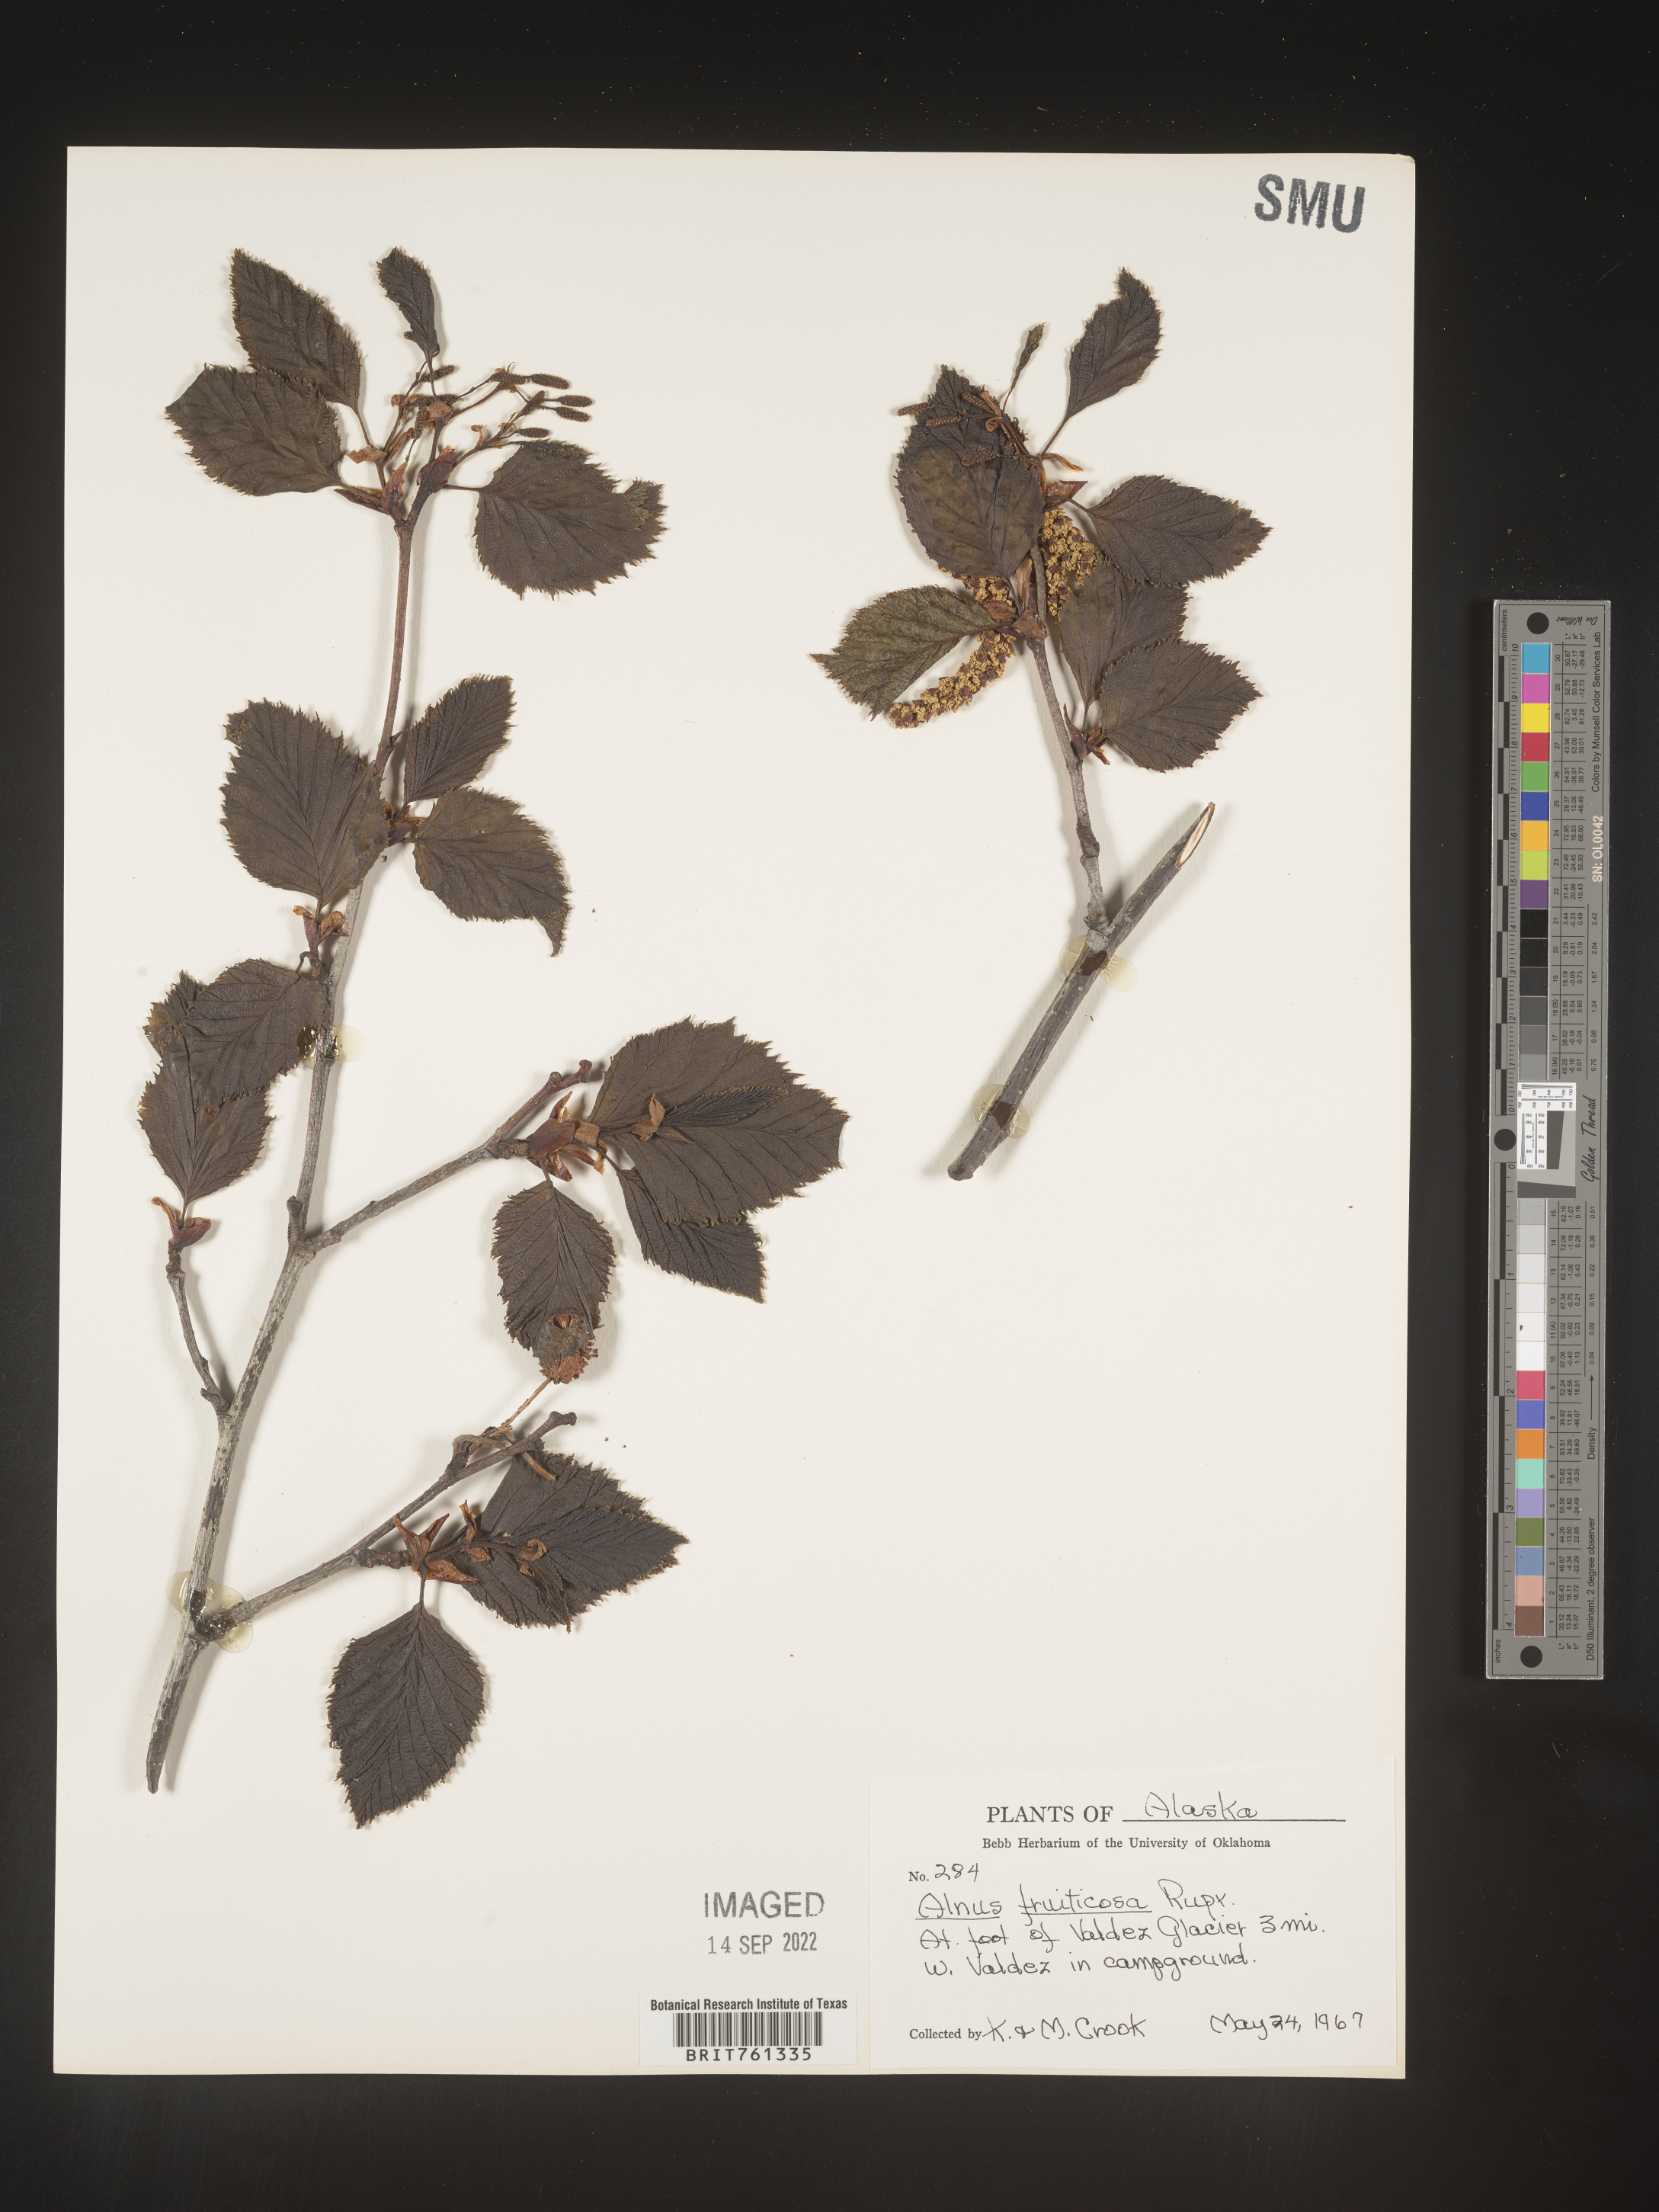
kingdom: Plantae
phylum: Tracheophyta
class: Magnoliopsida
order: Fagales
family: Betulaceae
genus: Alnus
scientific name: Alnus
